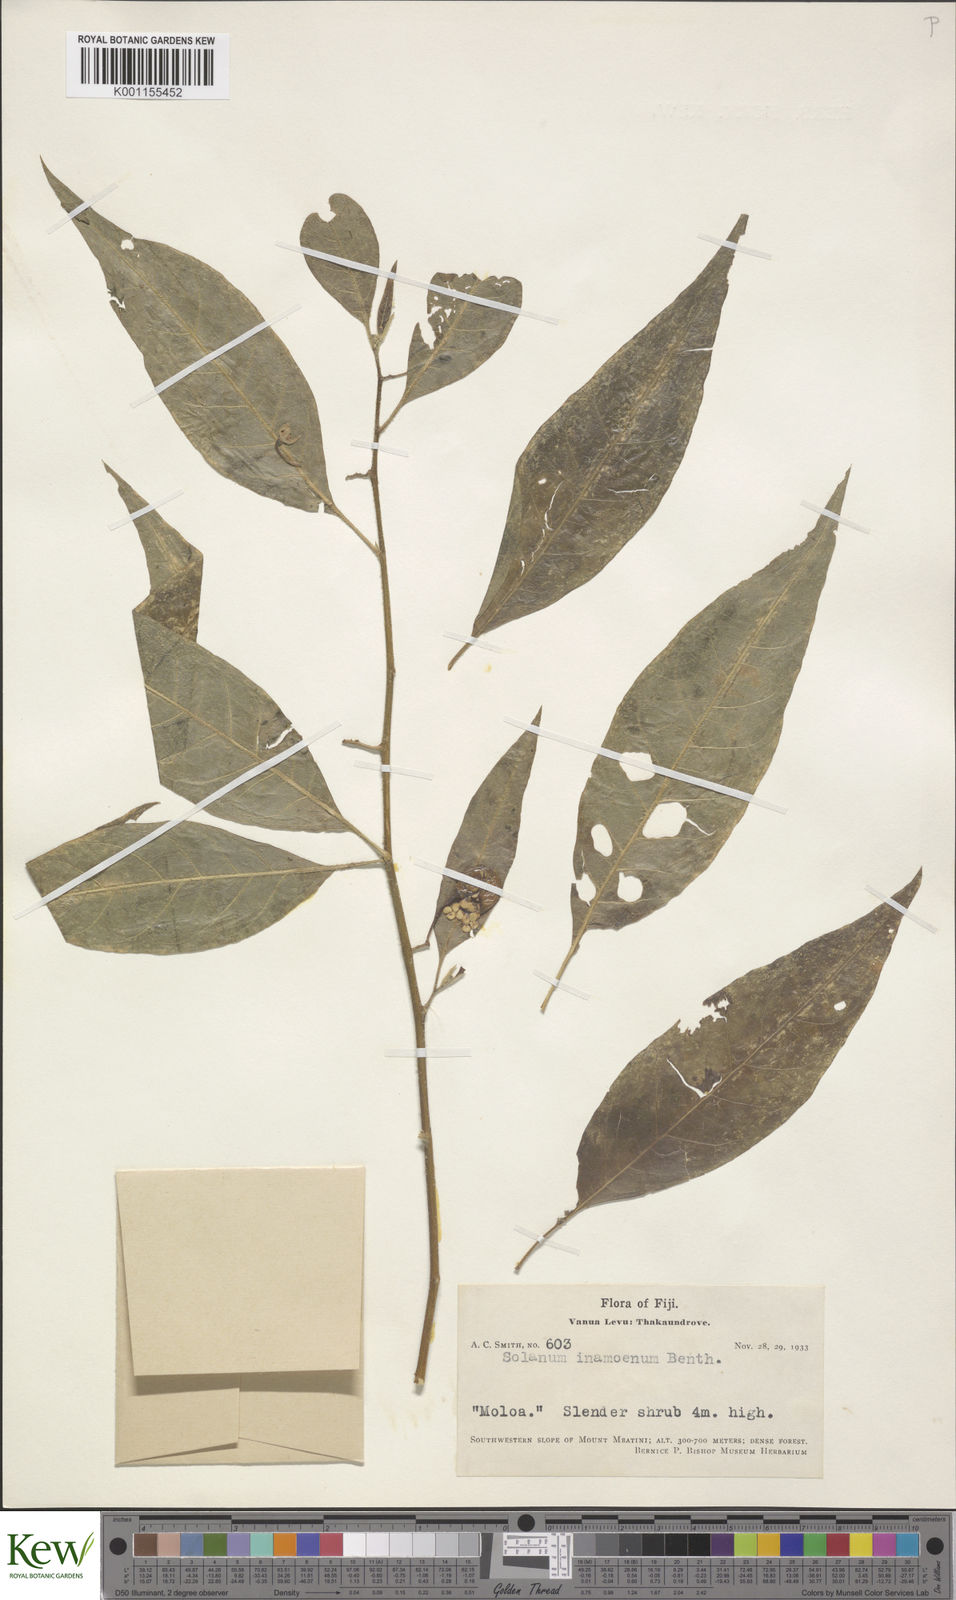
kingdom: Plantae
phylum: Tracheophyta
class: Magnoliopsida
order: Solanales
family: Solanaceae
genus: Solanum
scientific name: Solanum inamoenum
